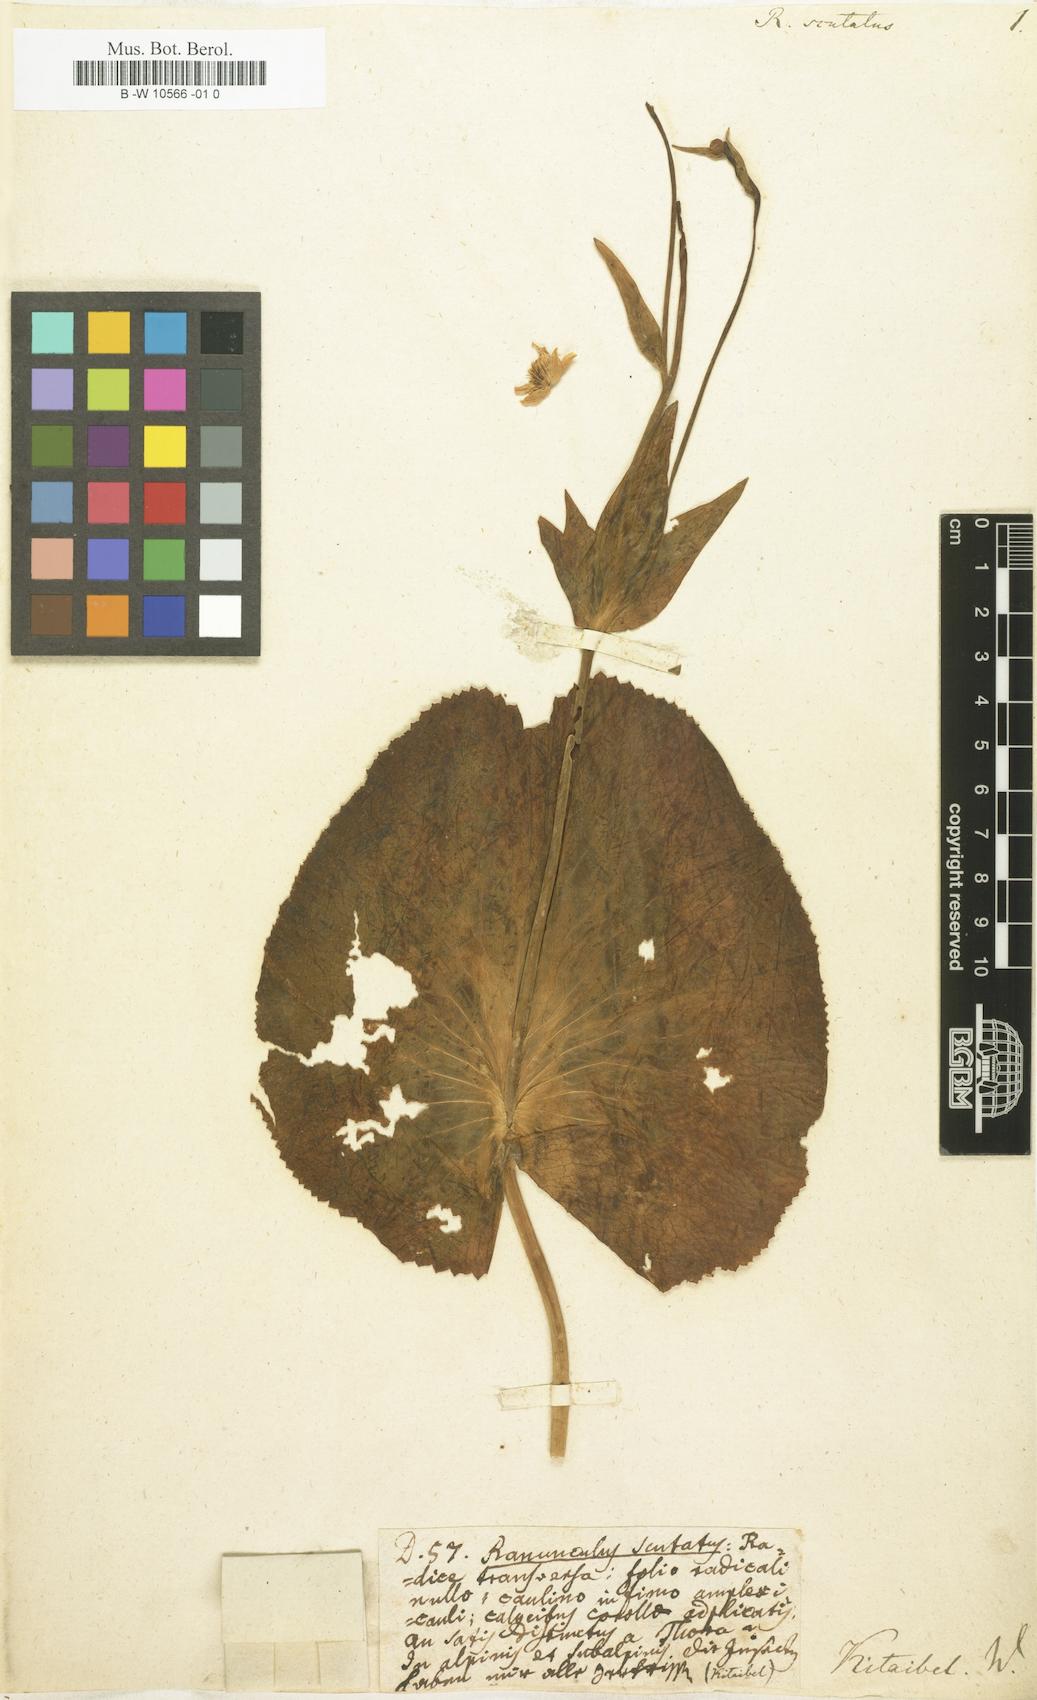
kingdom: Plantae
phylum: Tracheophyta
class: Magnoliopsida
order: Ranunculales
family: Ranunculaceae
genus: Ranunculus
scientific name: Ranunculus thora
